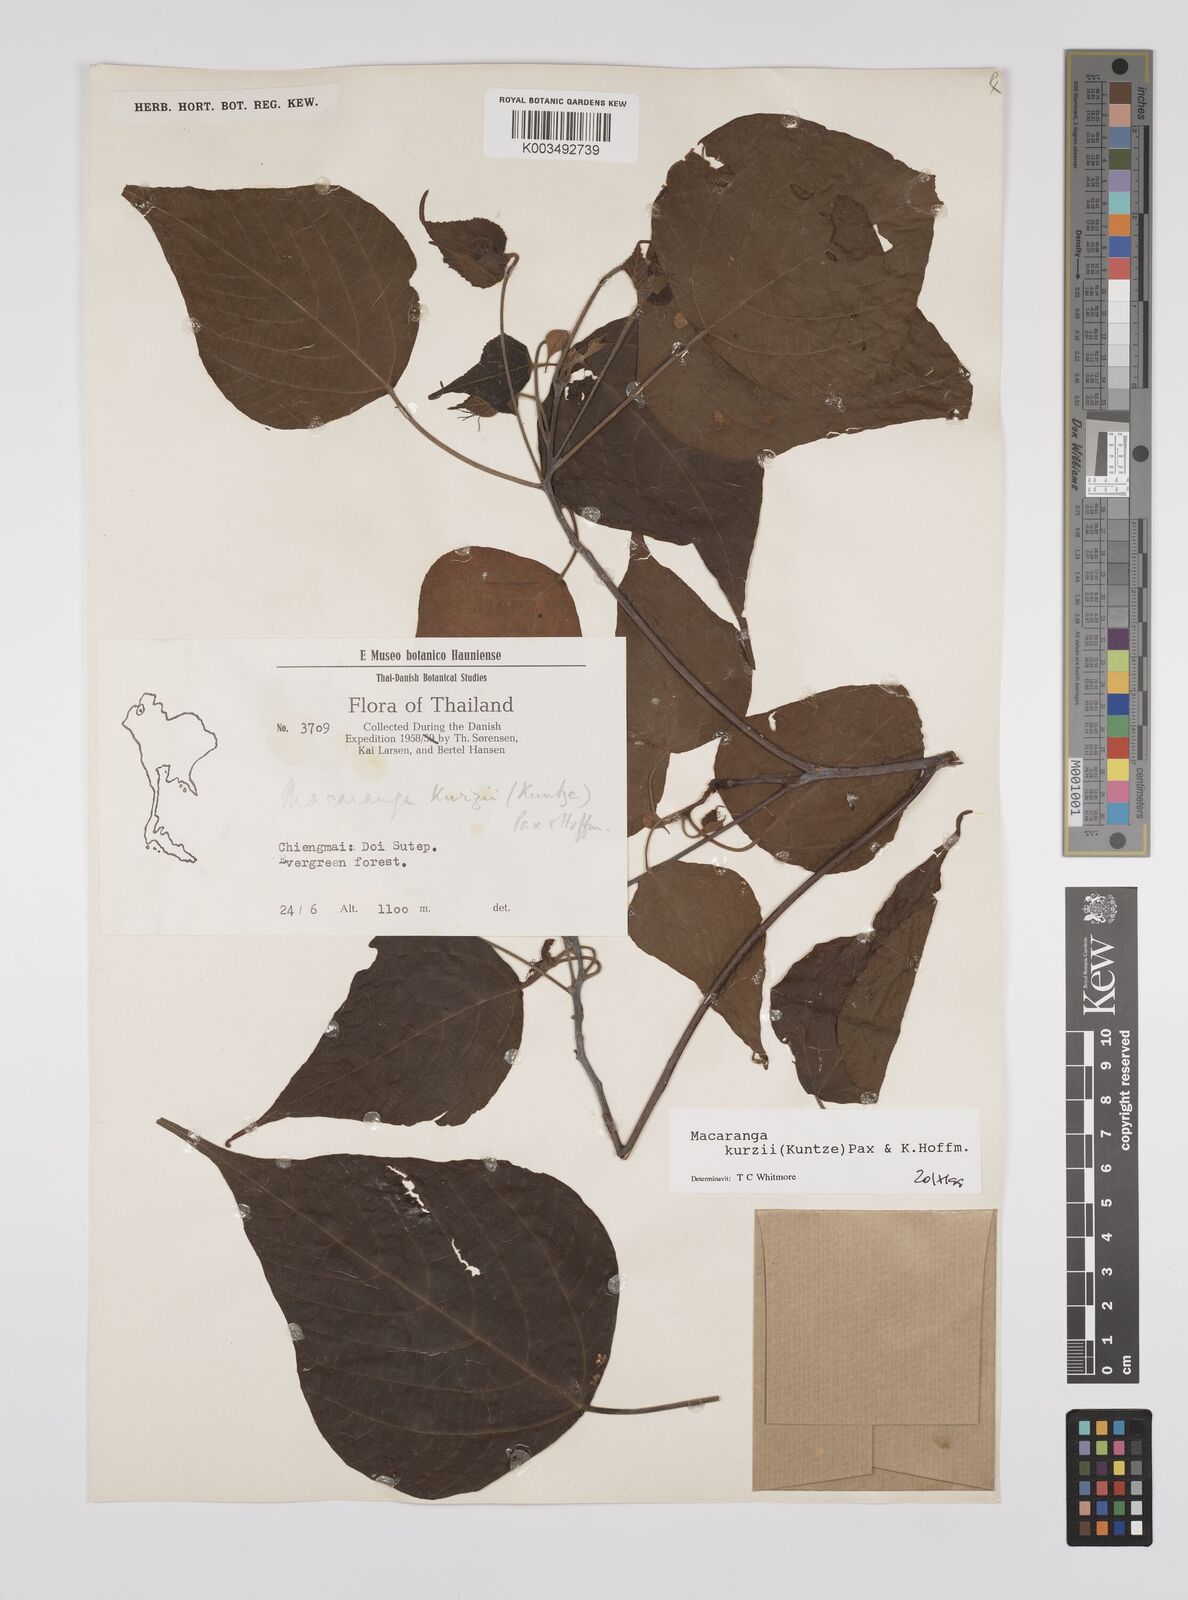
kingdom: Plantae
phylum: Tracheophyta
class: Magnoliopsida
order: Malpighiales
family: Euphorbiaceae
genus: Macaranga
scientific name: Macaranga kurzii
